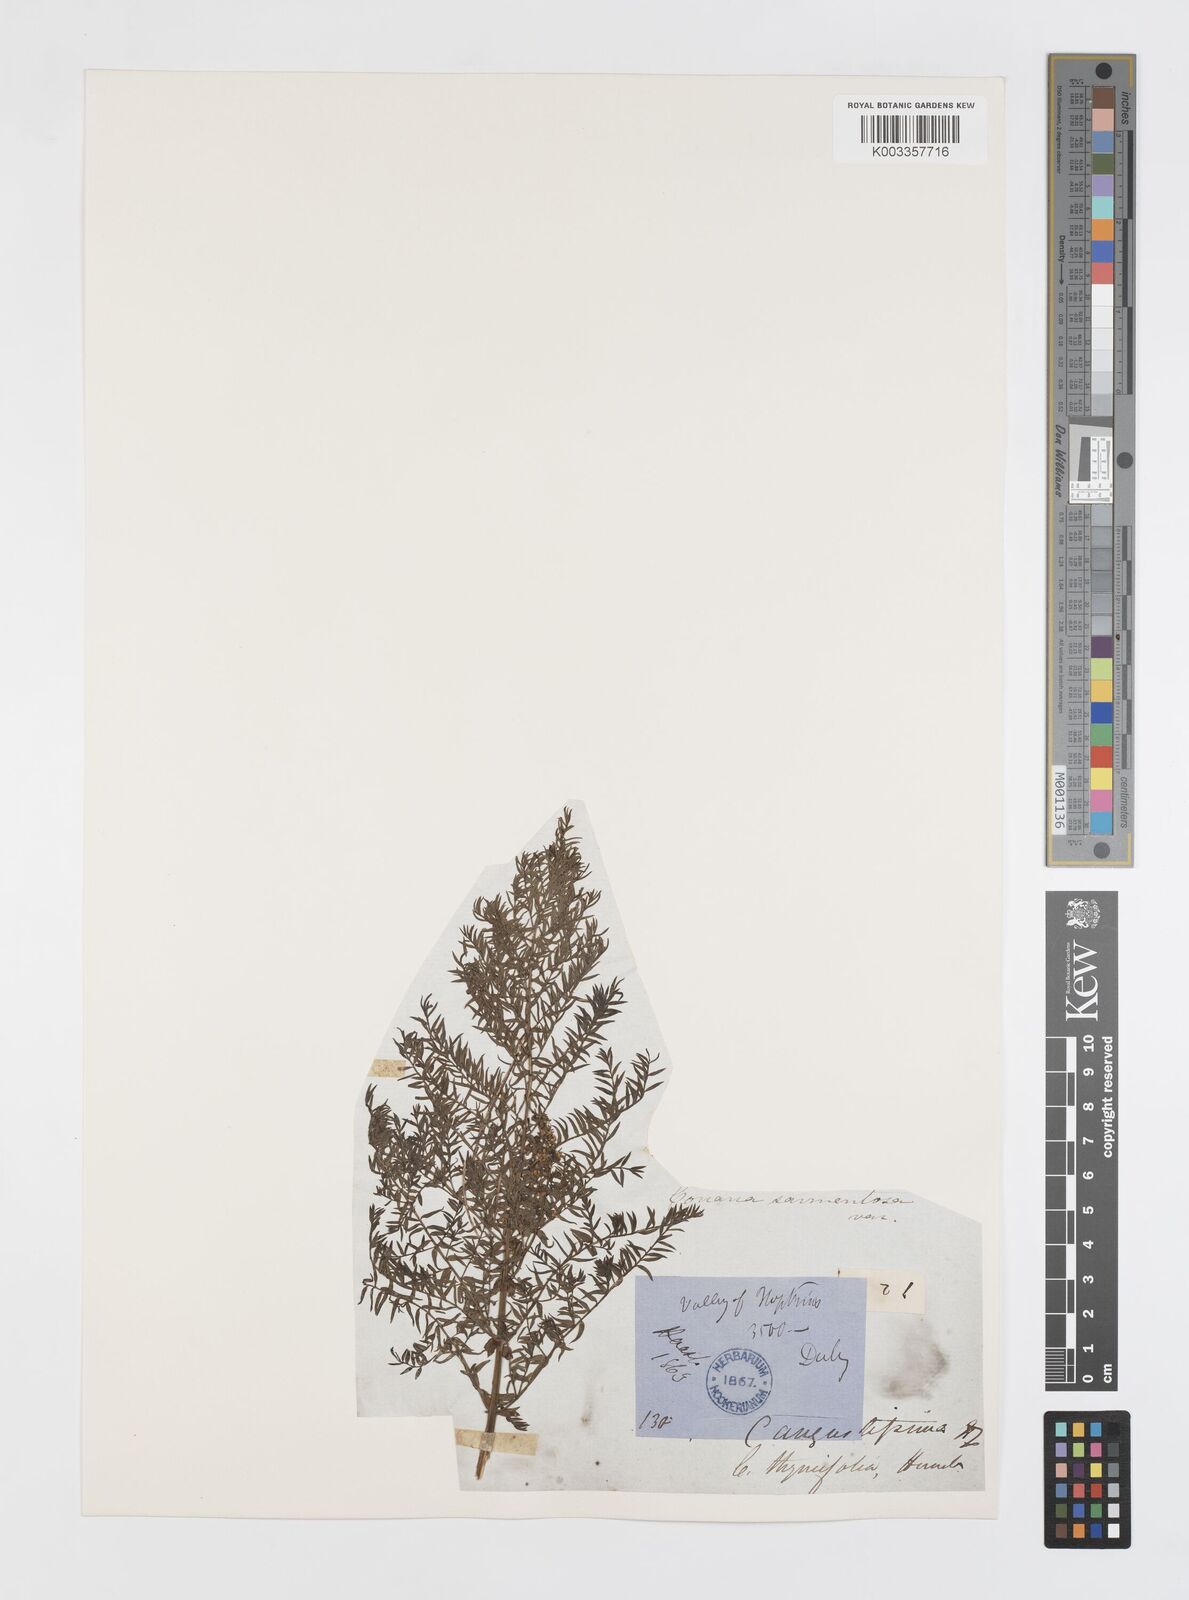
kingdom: Plantae
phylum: Tracheophyta
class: Magnoliopsida
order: Cucurbitales
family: Coriariaceae
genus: Coriaria
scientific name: Coriaria angustissima
